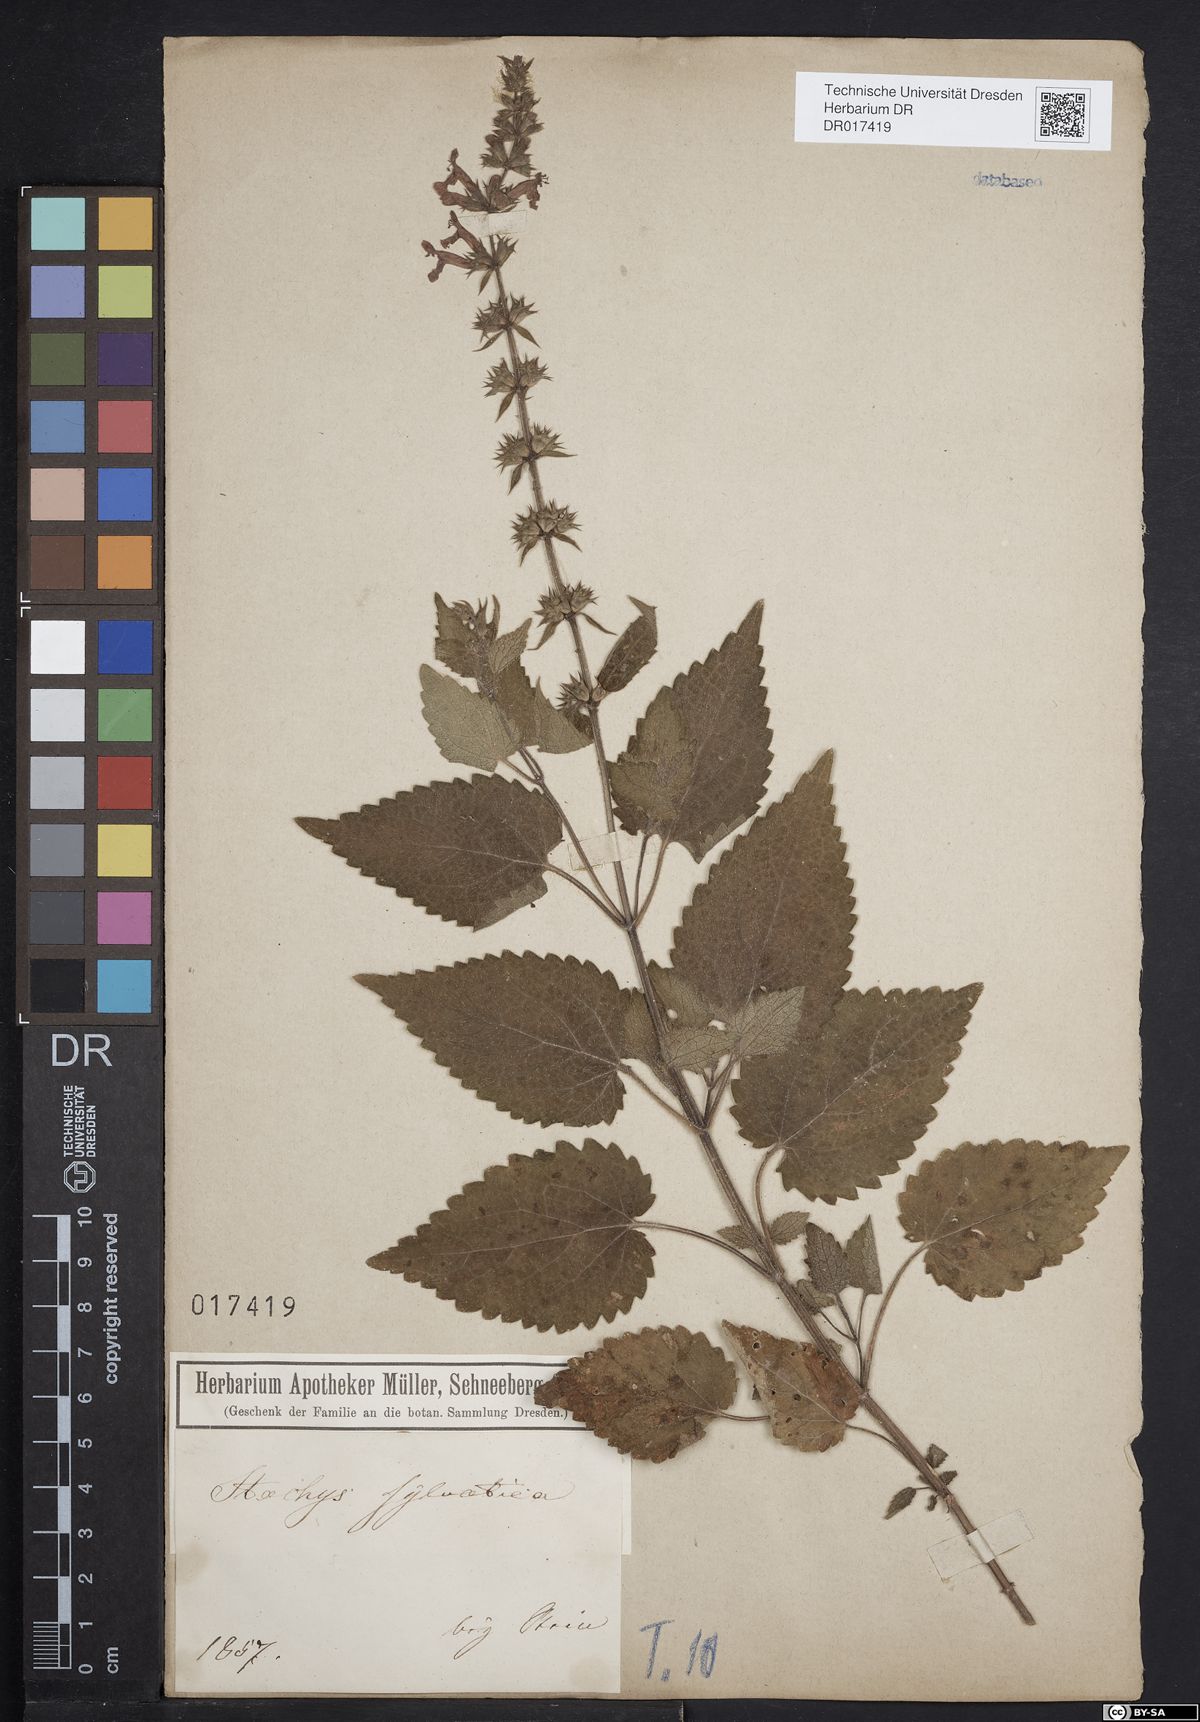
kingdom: Plantae
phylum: Tracheophyta
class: Magnoliopsida
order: Lamiales
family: Lamiaceae
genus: Stachys
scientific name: Stachys sylvatica
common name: Hedge woundwort
